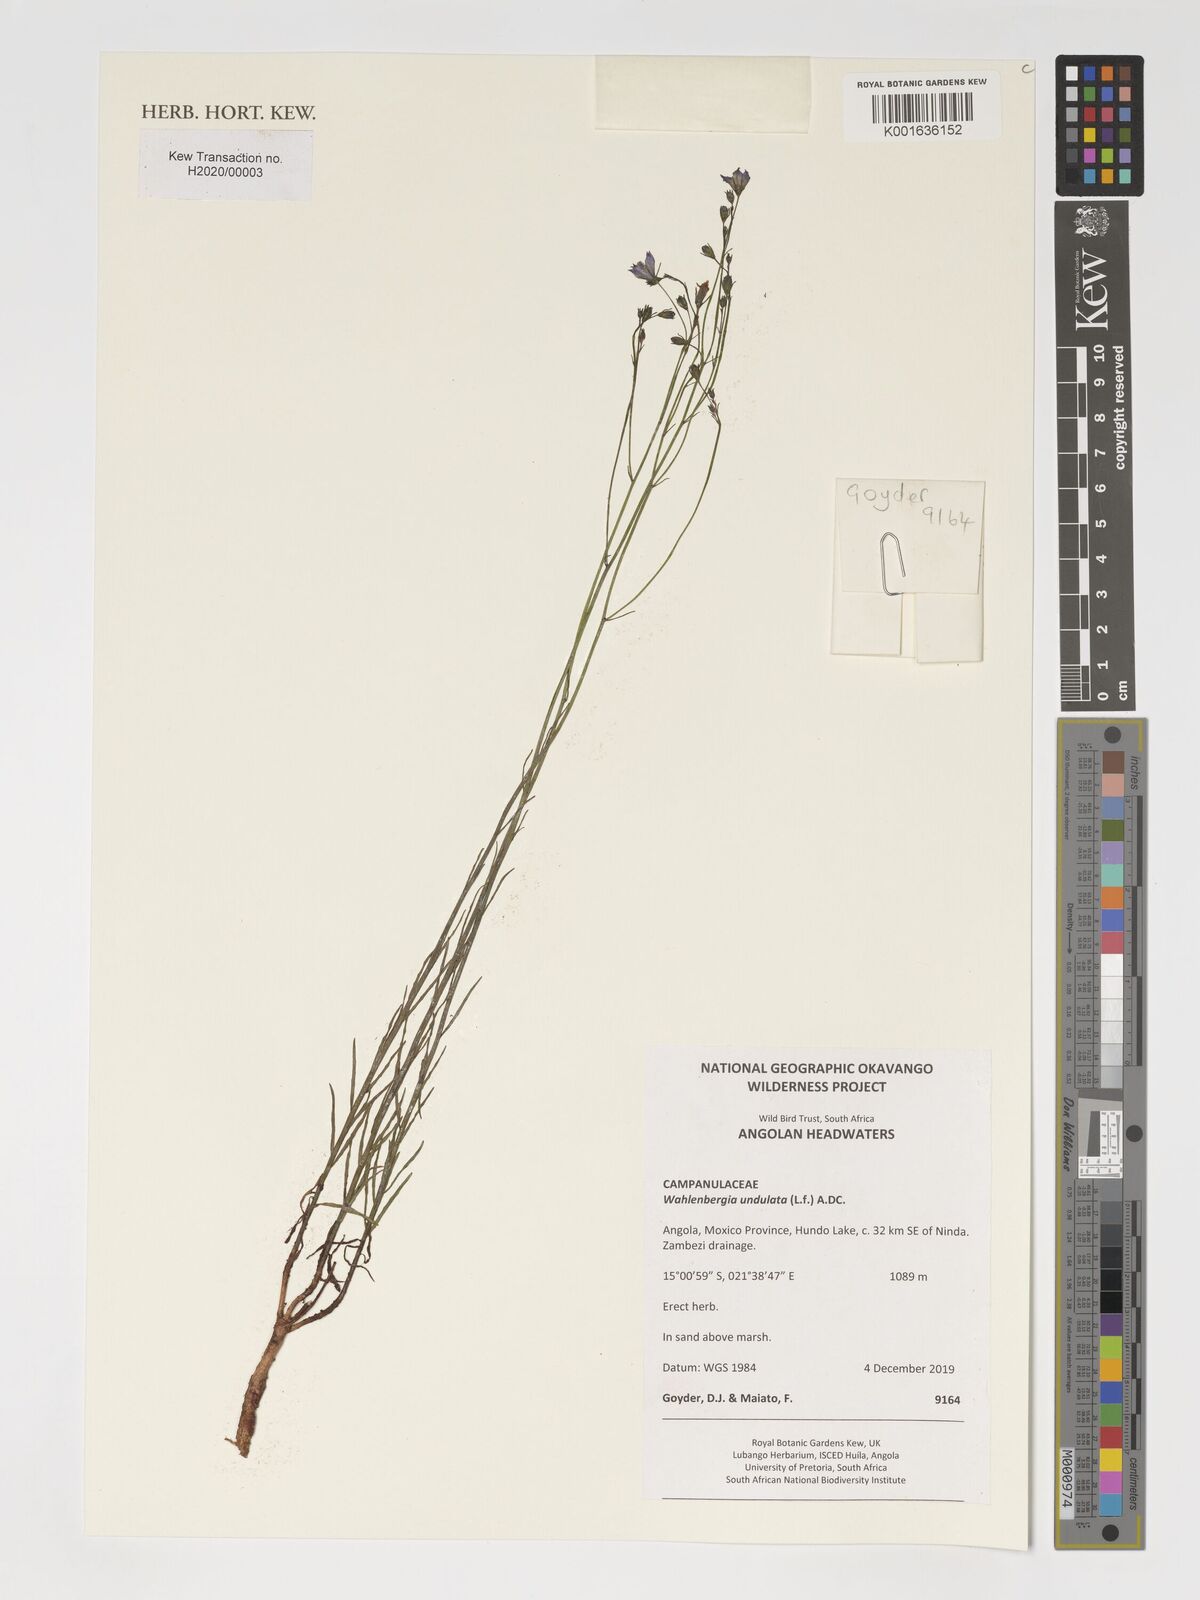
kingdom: Plantae
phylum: Tracheophyta
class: Magnoliopsida
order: Asterales
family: Campanulaceae
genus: Wahlenbergia
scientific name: Wahlenbergia undulata
